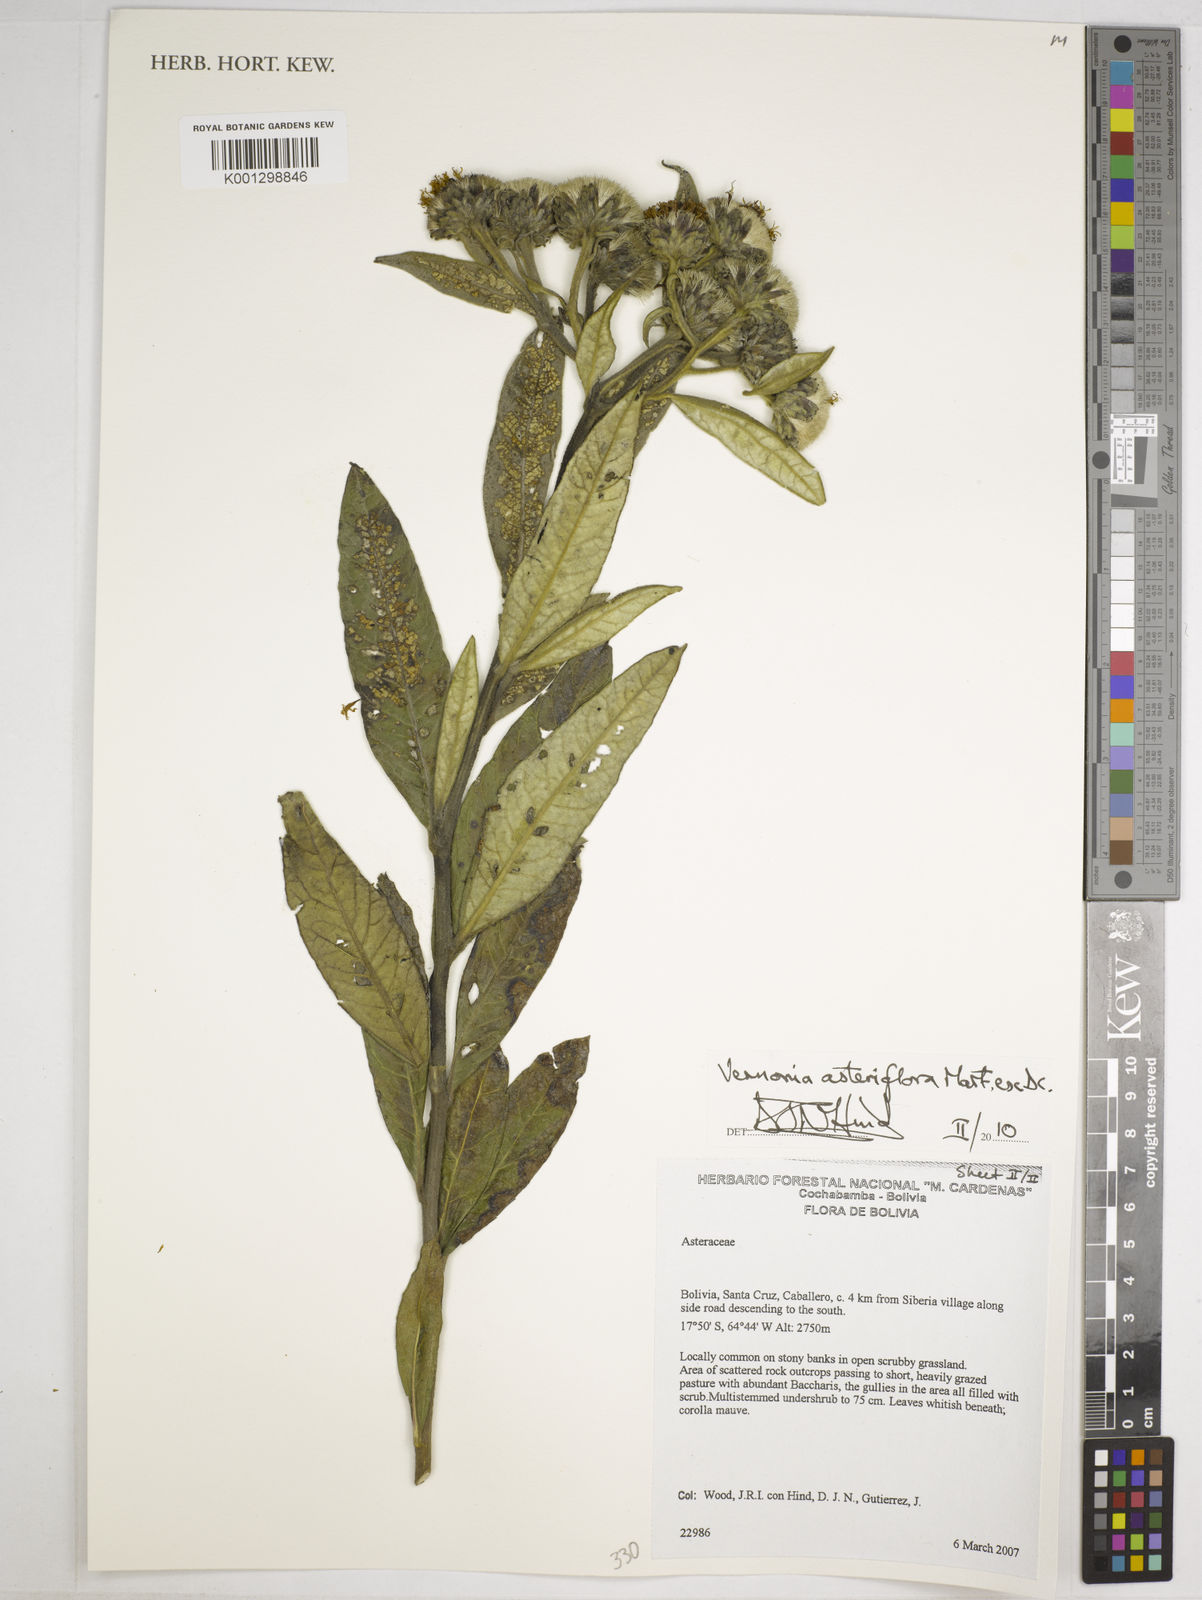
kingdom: Plantae
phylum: Tracheophyta
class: Magnoliopsida
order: Asterales
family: Asteraceae
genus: Lessingianthus
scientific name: Lessingianthus asteriflorus
